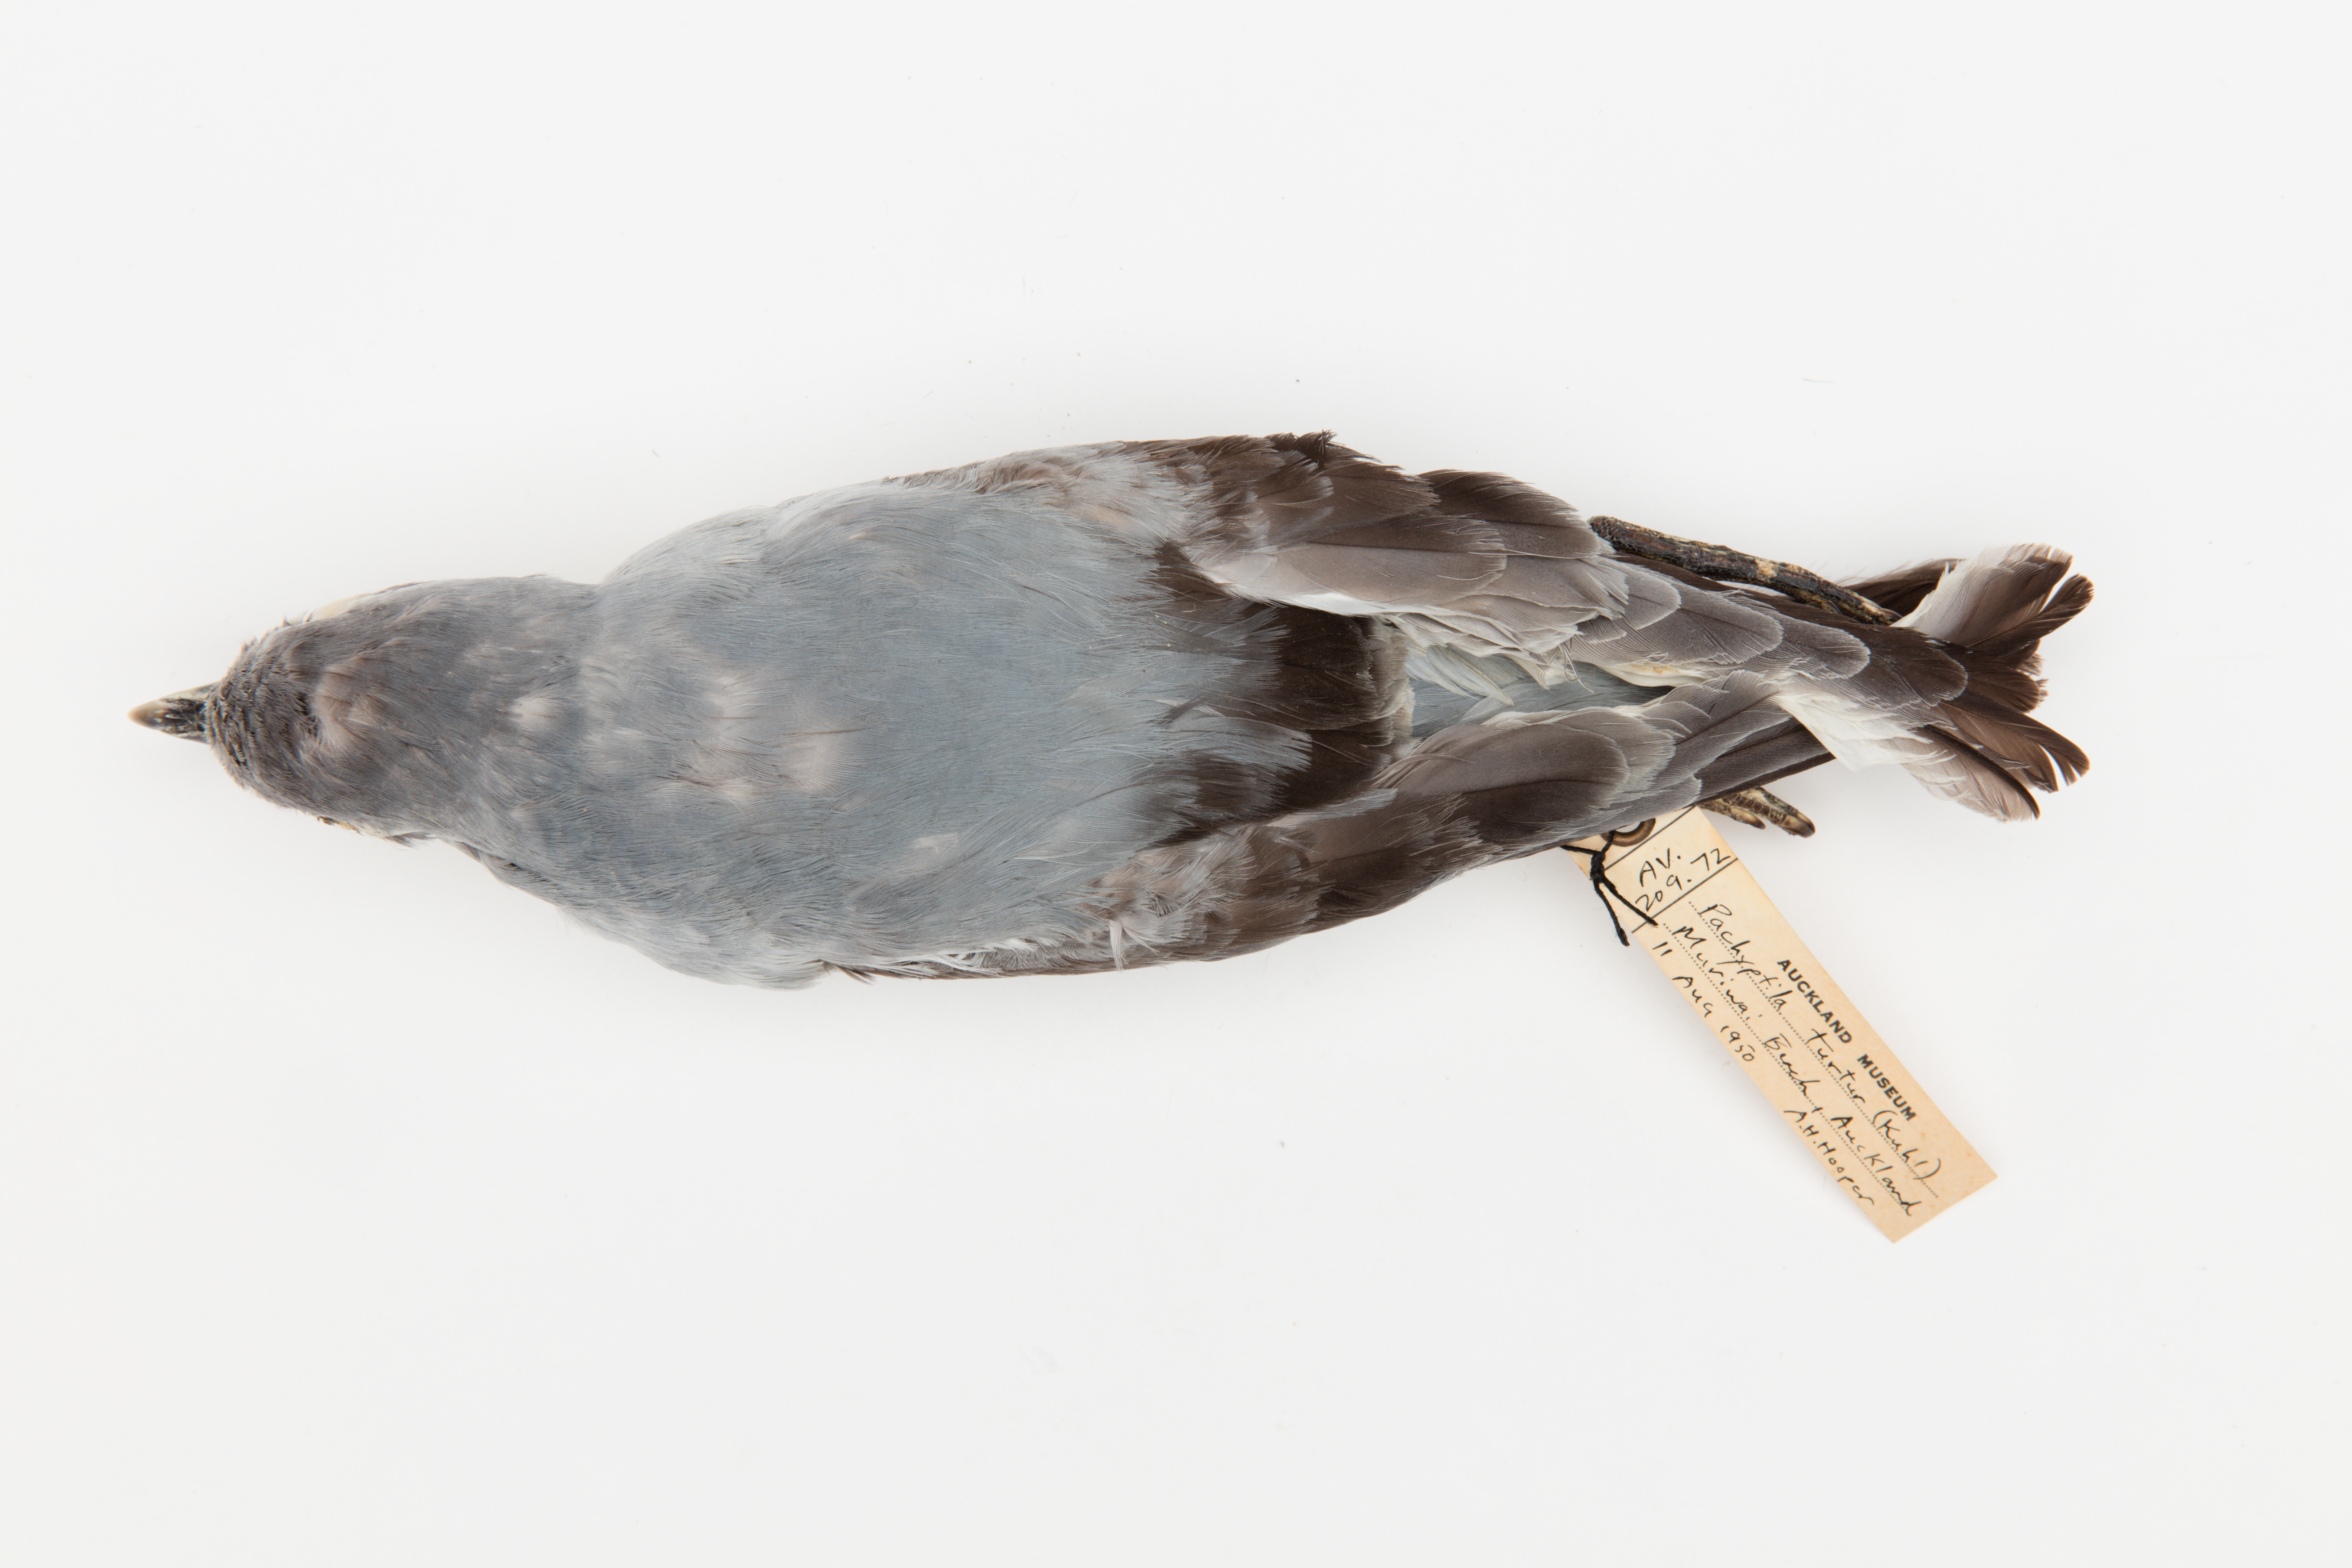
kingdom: Animalia
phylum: Chordata
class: Aves
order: Procellariiformes
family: Procellariidae
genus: Pachyptila
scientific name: Pachyptila turtur
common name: Fairy prion
